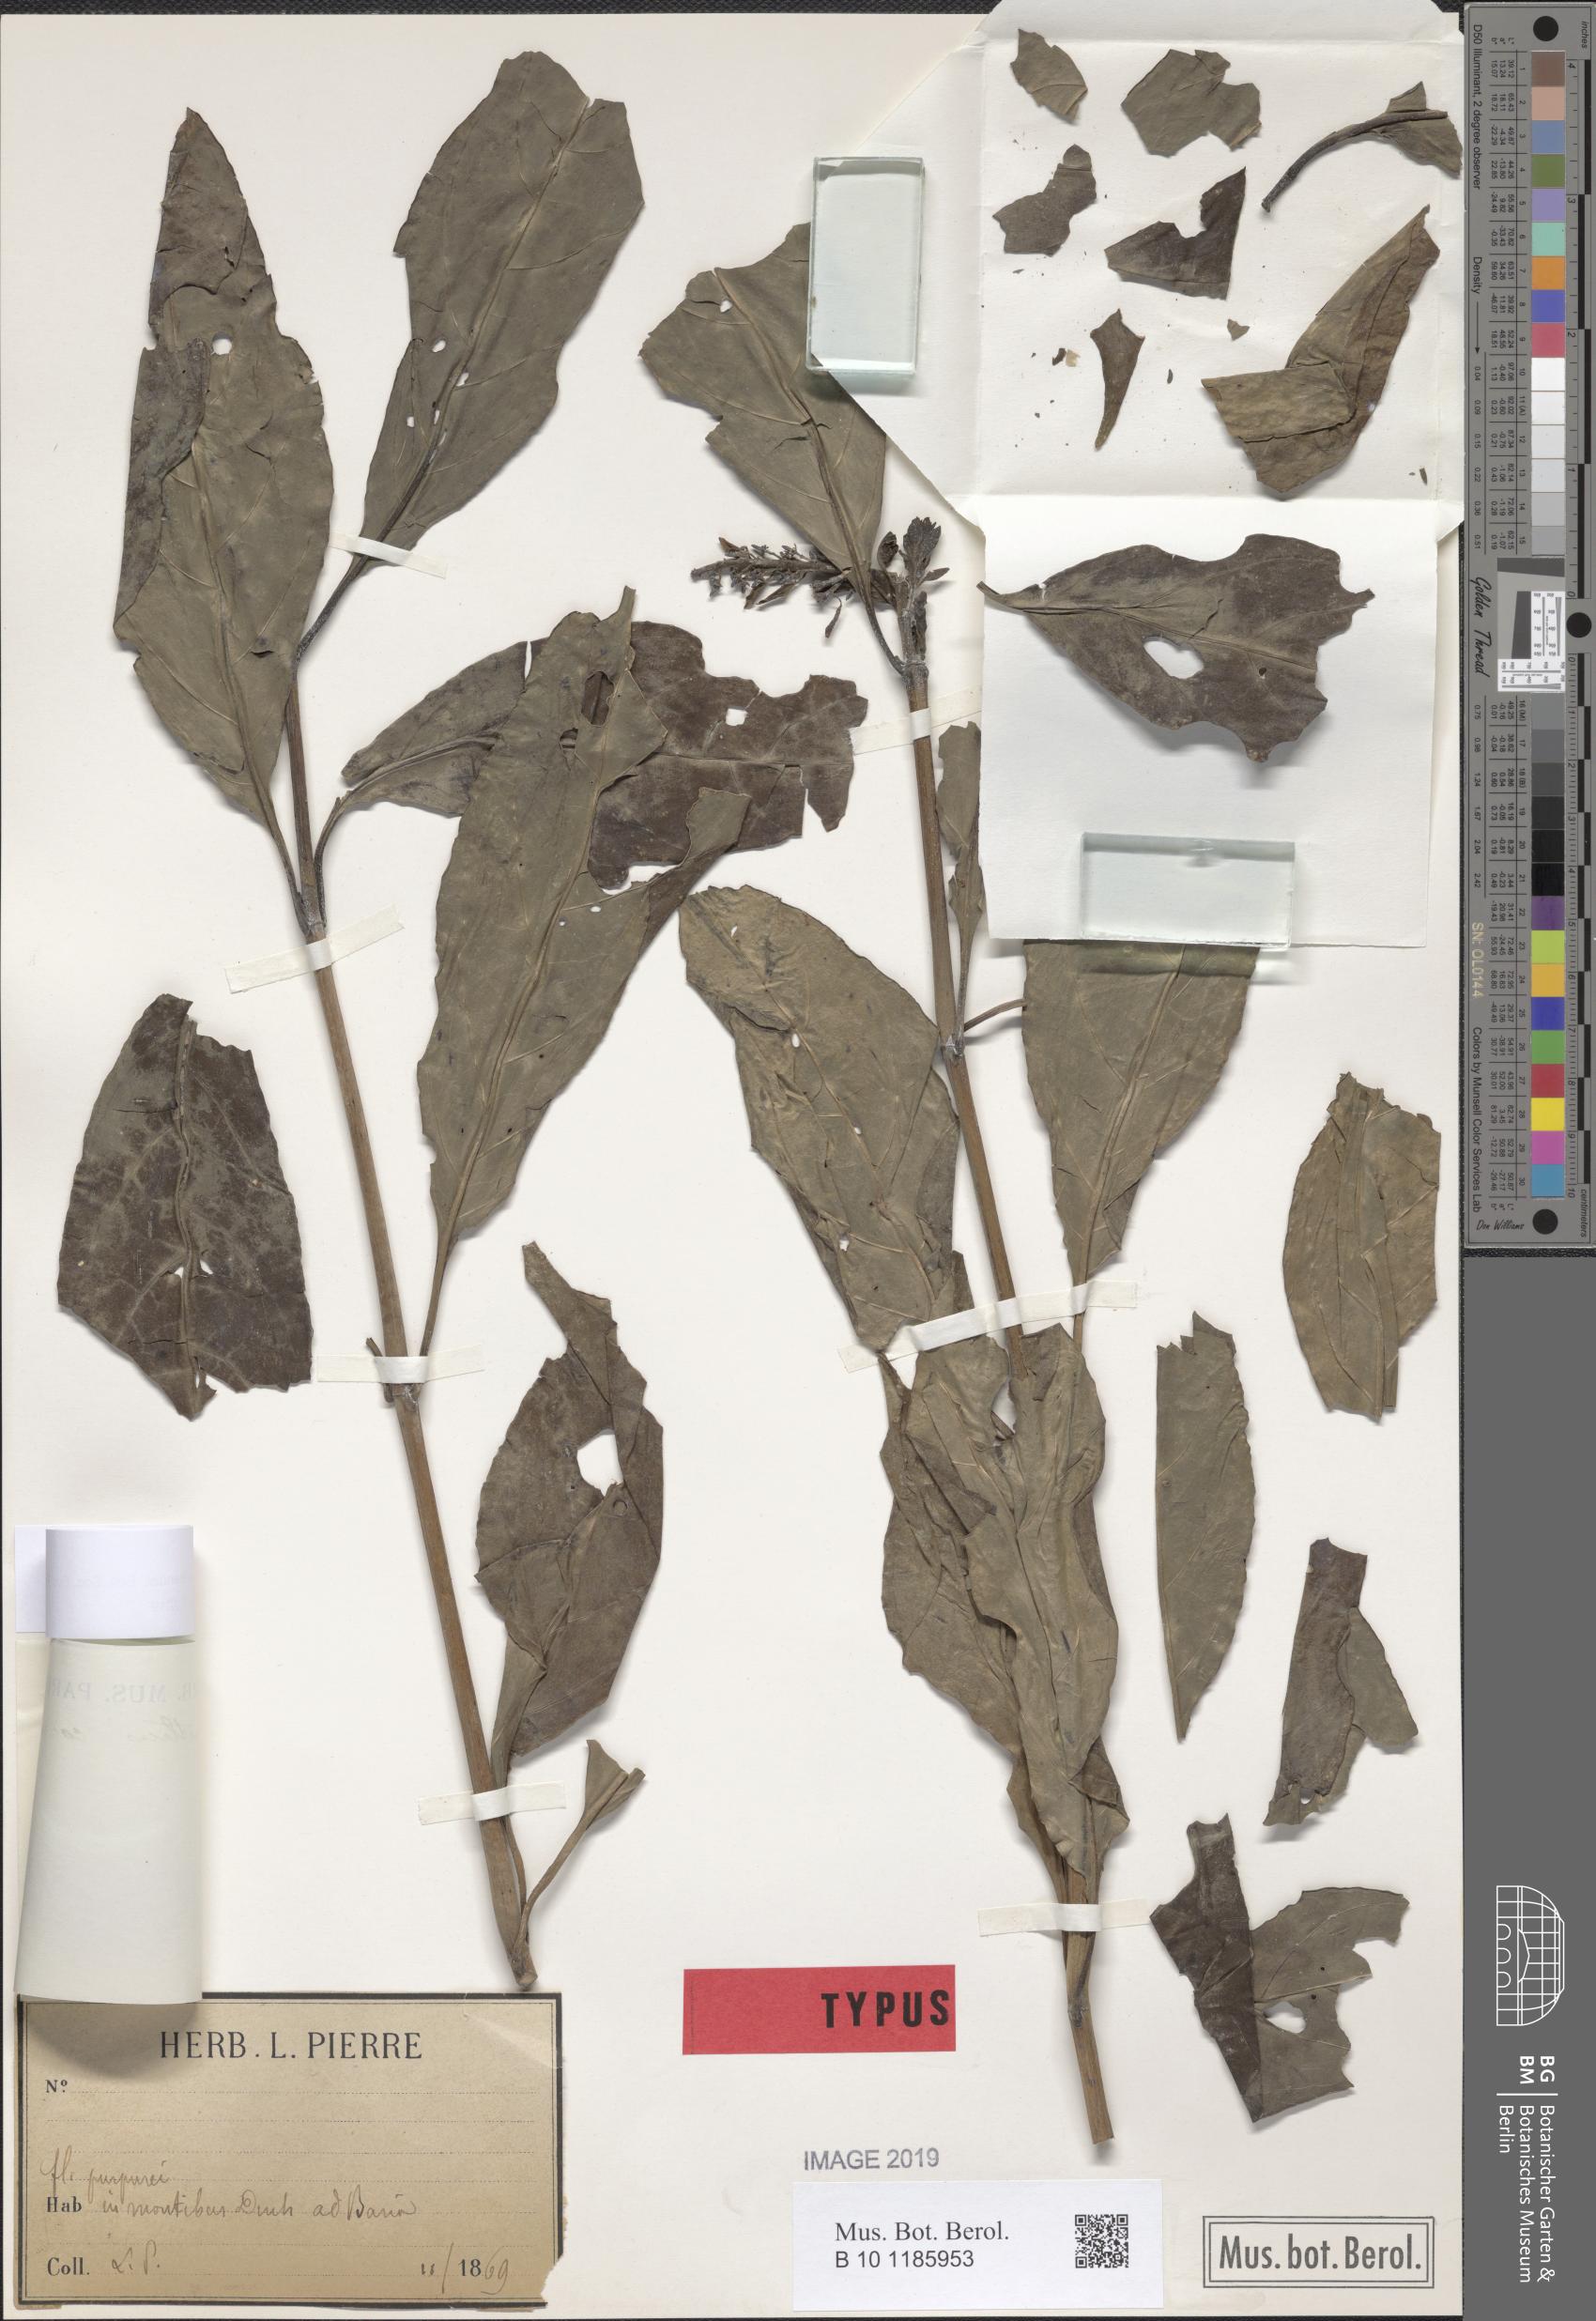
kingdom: Plantae
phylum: Tracheophyta
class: Magnoliopsida
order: Lamiales
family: Acanthaceae
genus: Phlogacanthus
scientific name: Phlogacanthus cornutus
